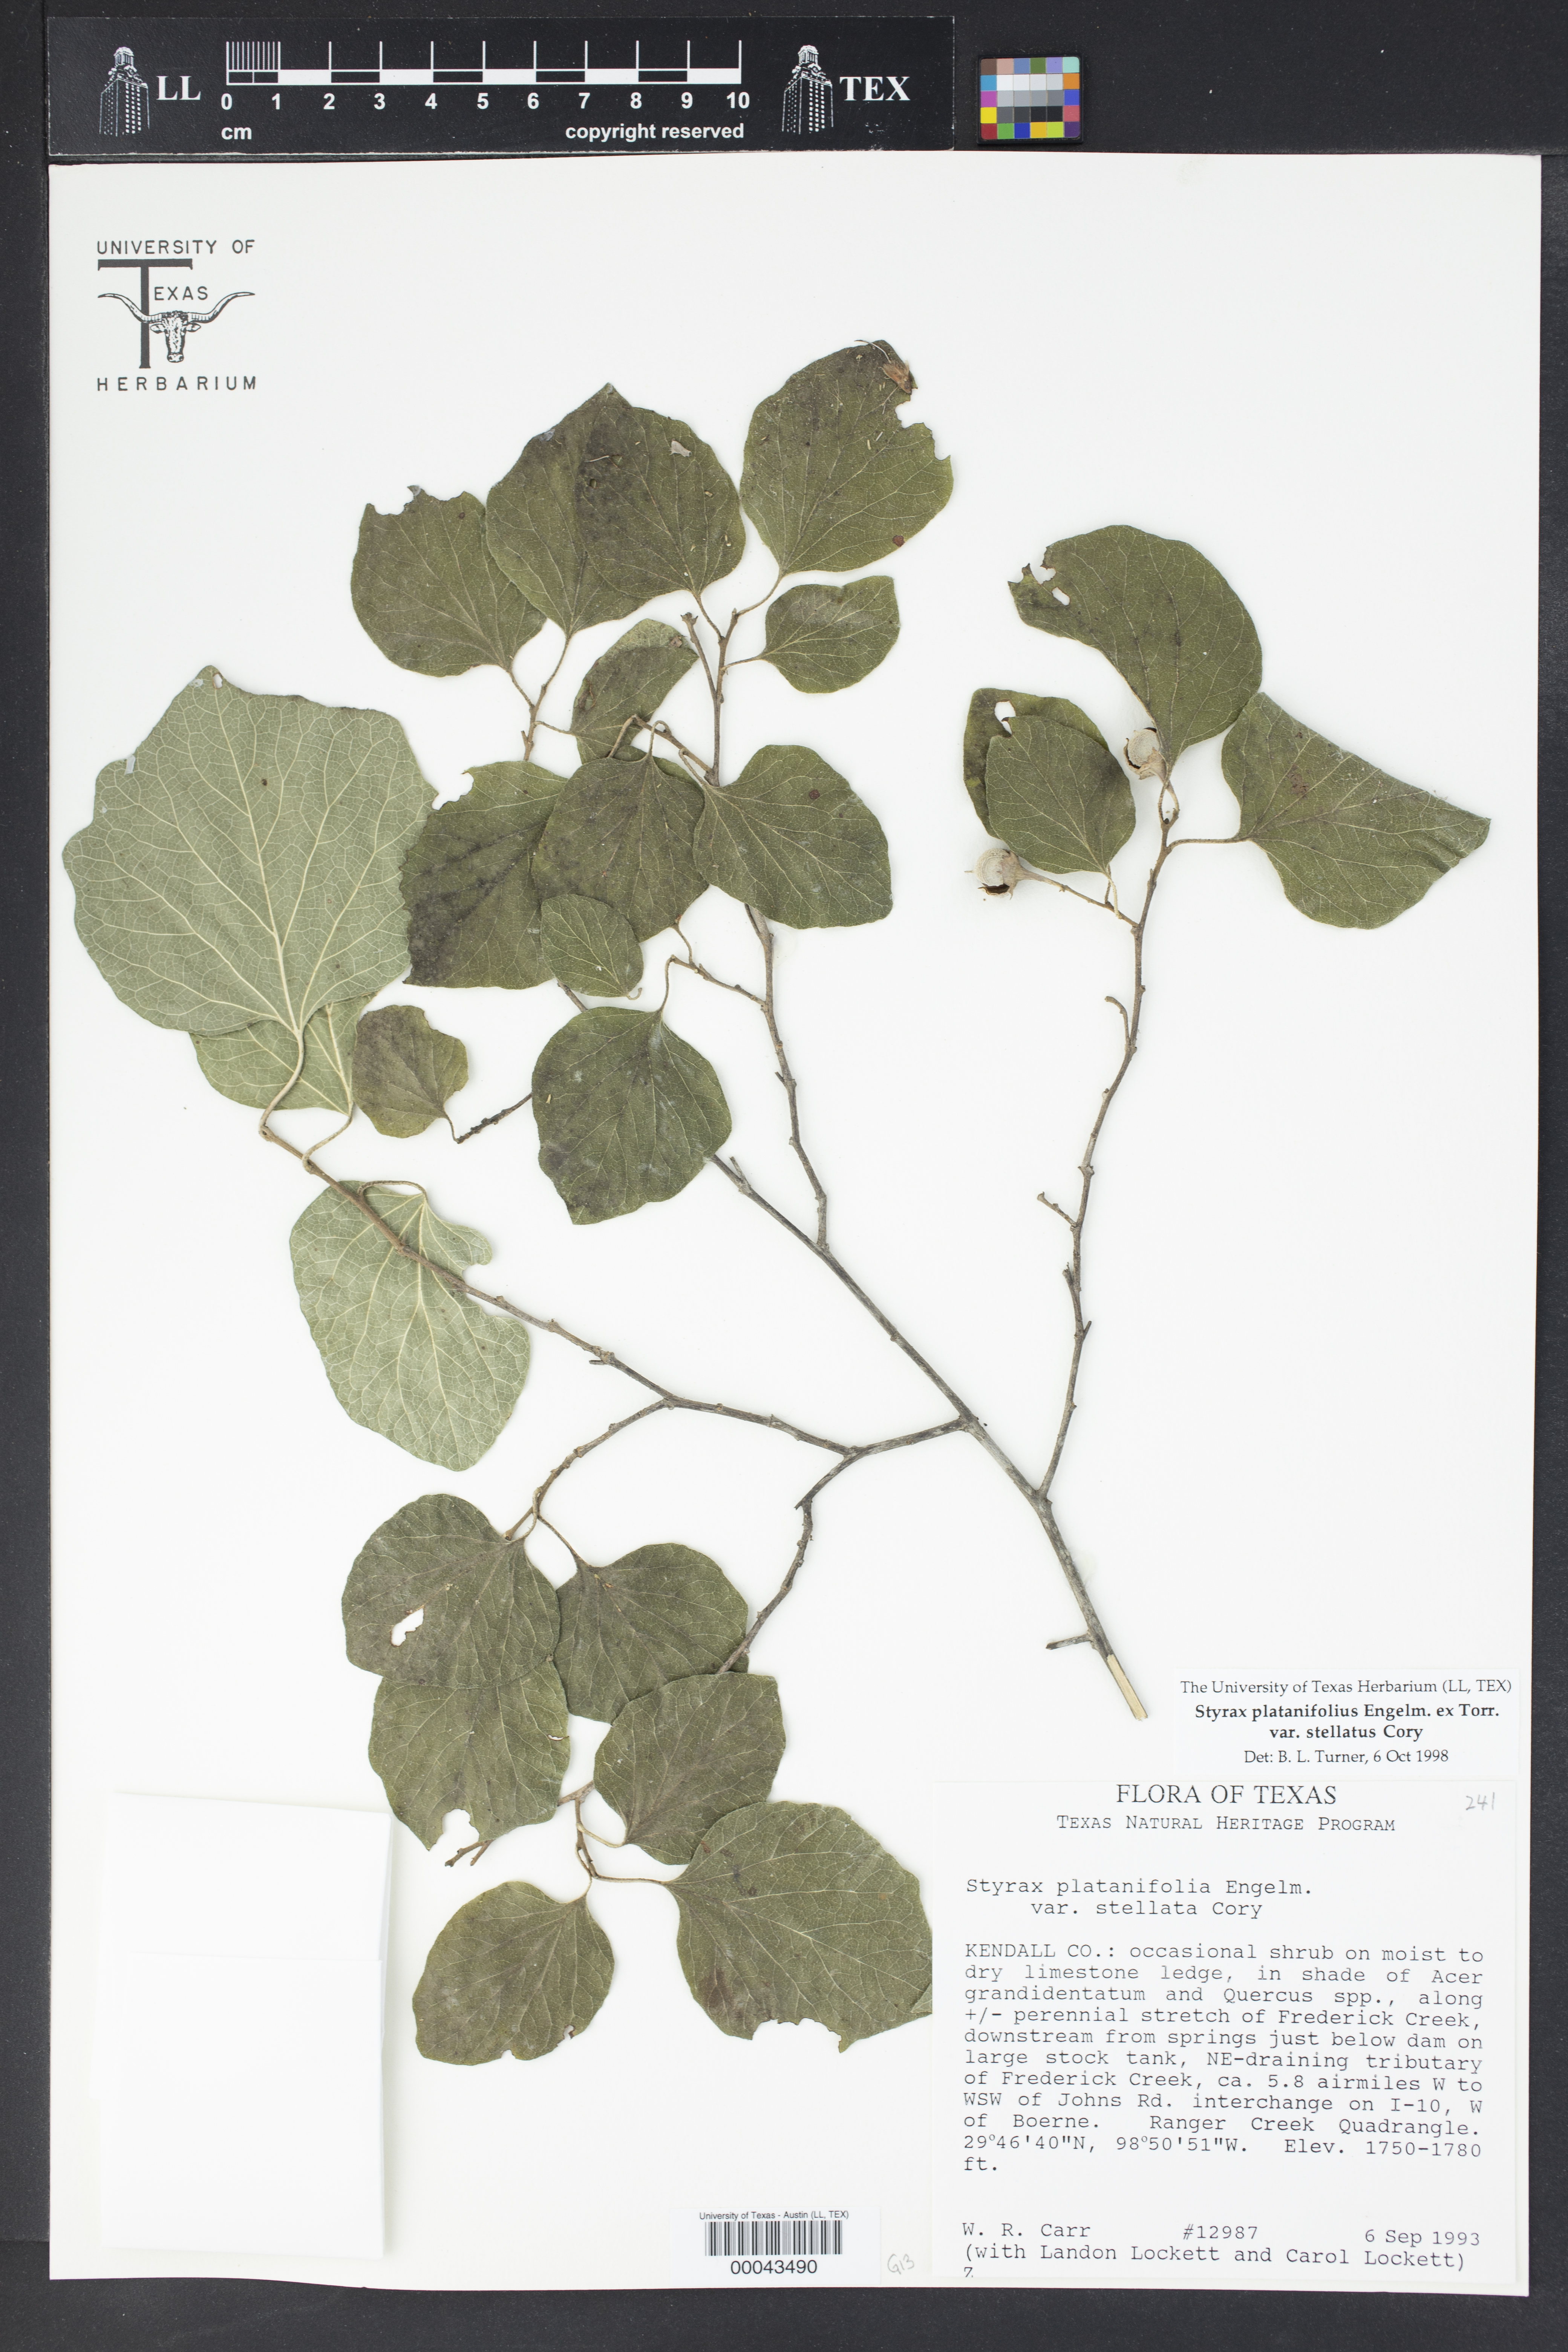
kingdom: Plantae
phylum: Tracheophyta
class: Magnoliopsida
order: Ericales
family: Styracaceae
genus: Styrax
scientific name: Styrax platanifolius
